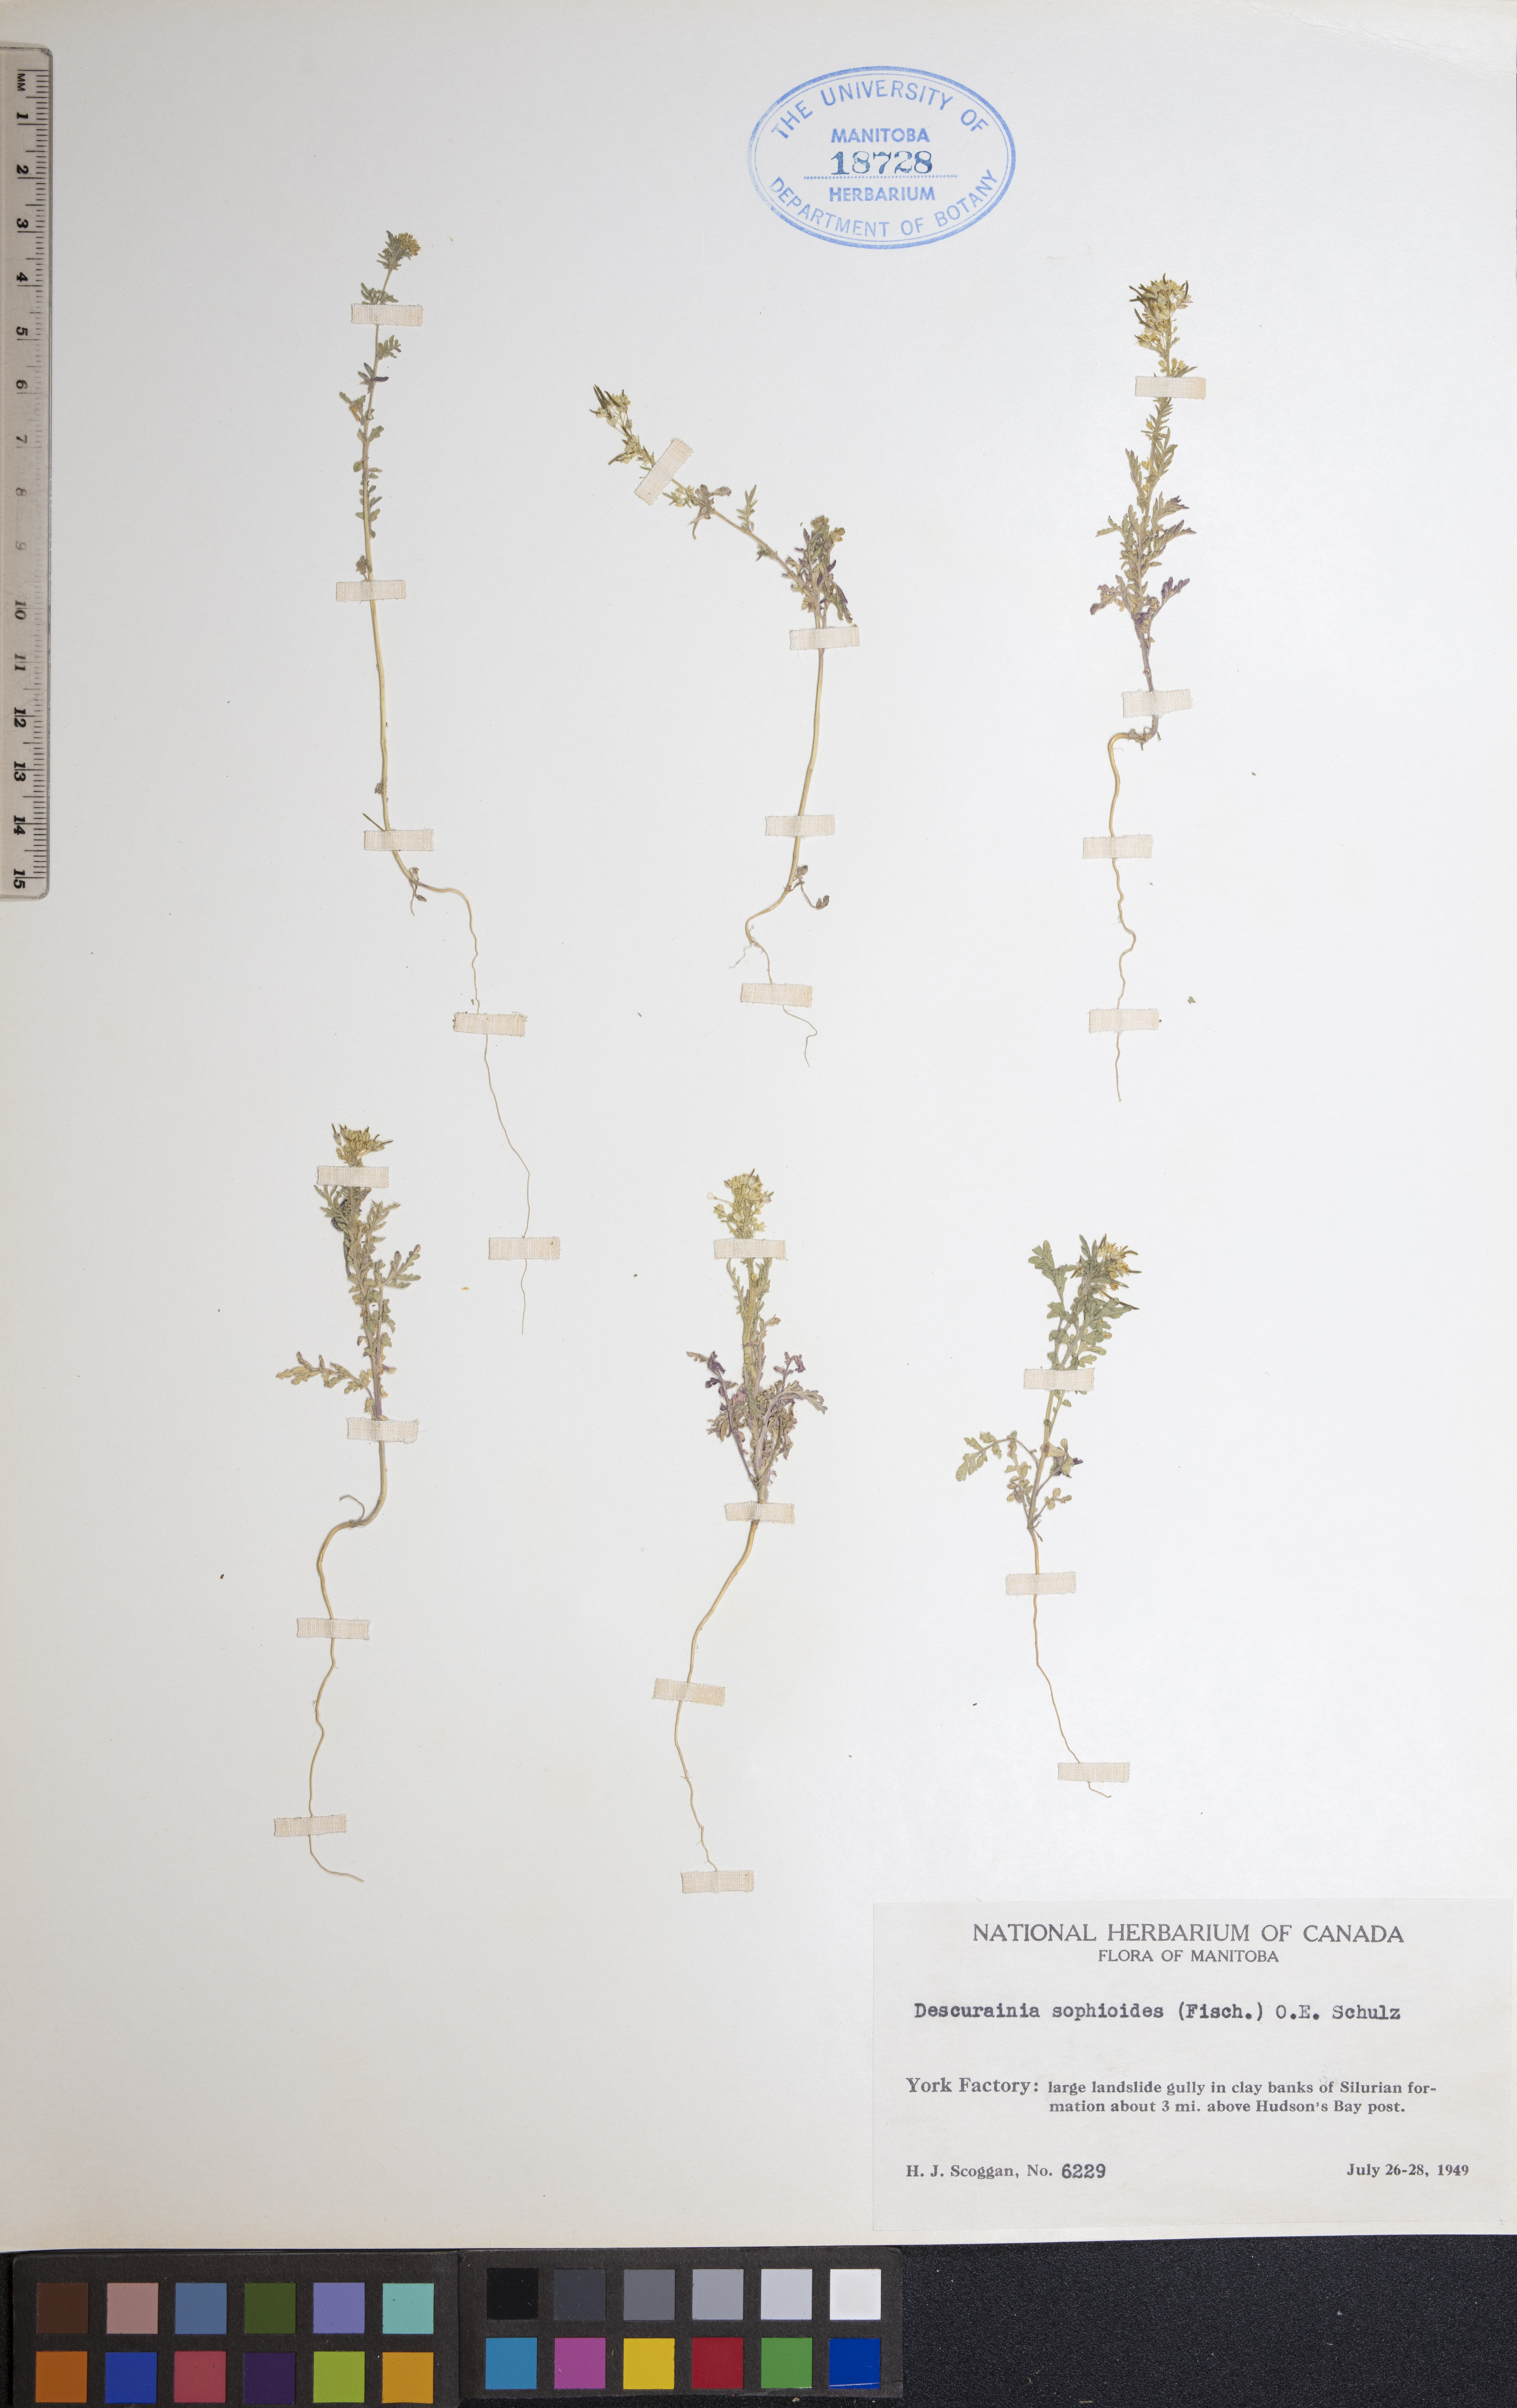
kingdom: Plantae
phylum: Tracheophyta
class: Magnoliopsida
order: Brassicales
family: Brassicaceae
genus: Descurainia
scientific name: Descurainia sophioides
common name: Northern tansy mustard
